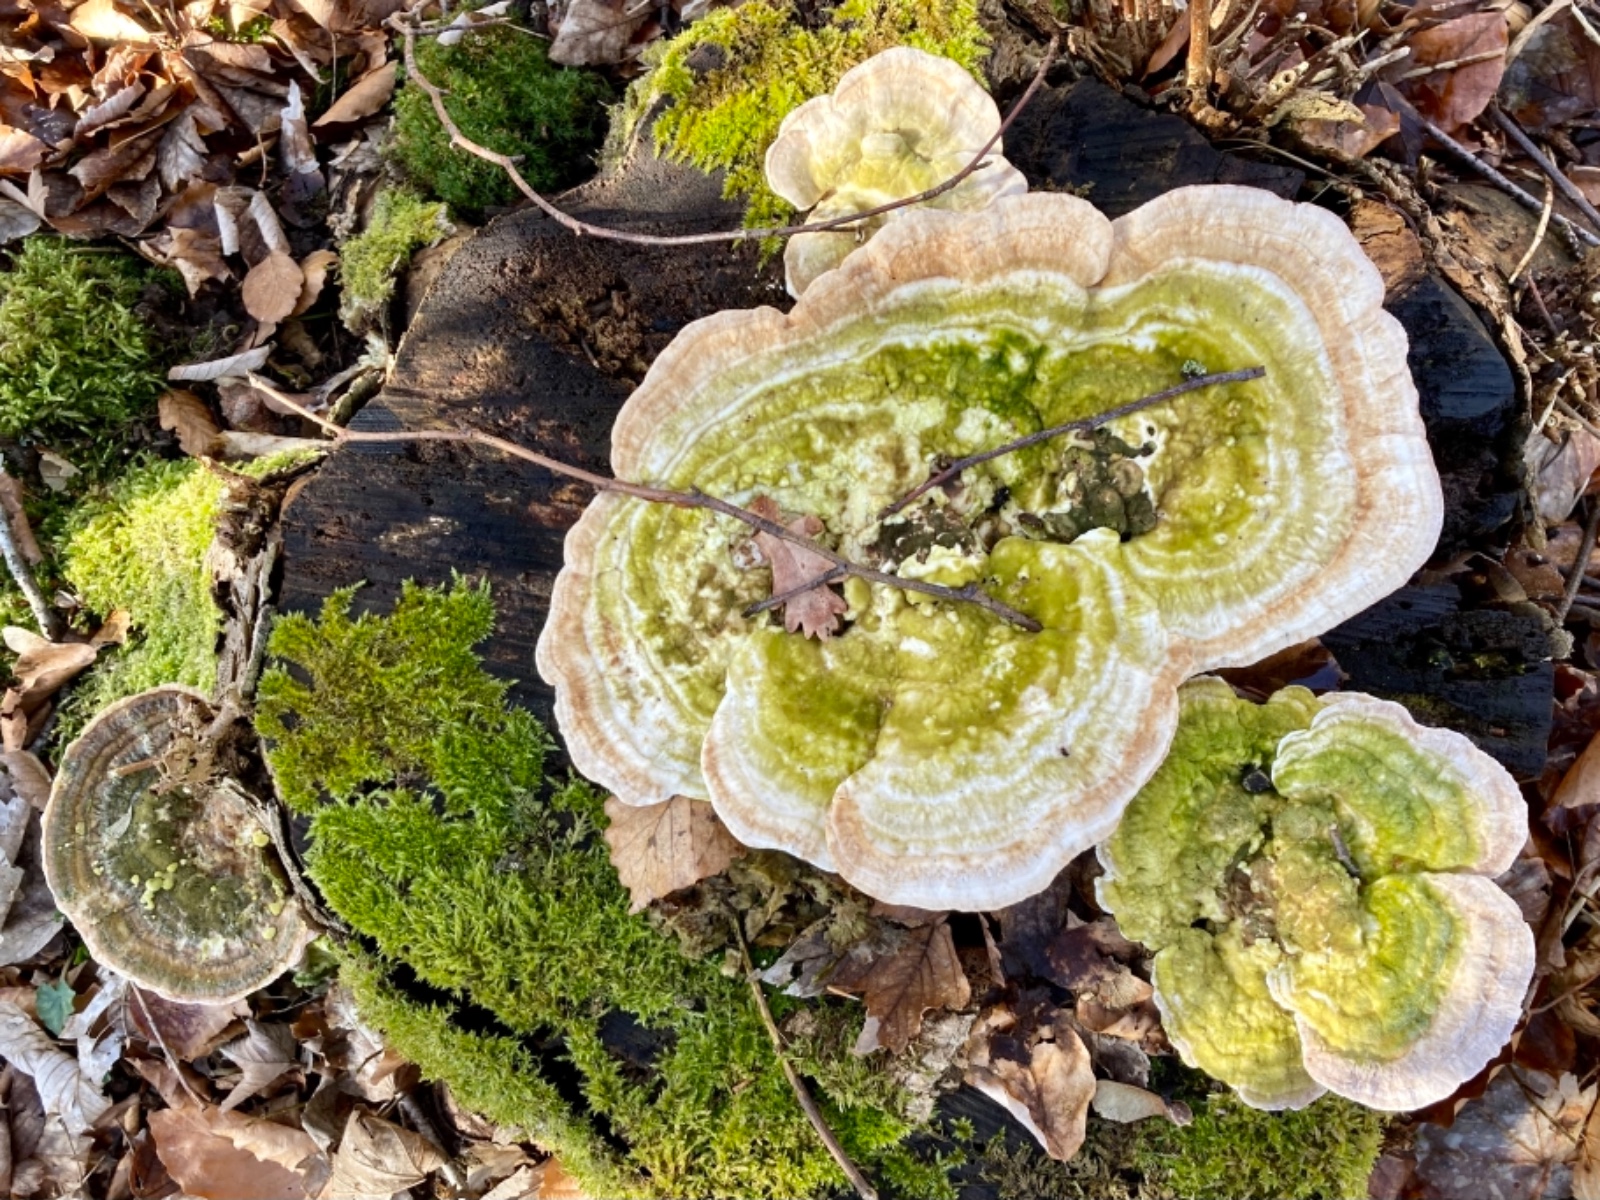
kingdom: Fungi
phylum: Basidiomycota
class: Agaricomycetes
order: Polyporales
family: Polyporaceae
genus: Trametes
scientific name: Trametes gibbosa
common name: puklet læderporesvamp
